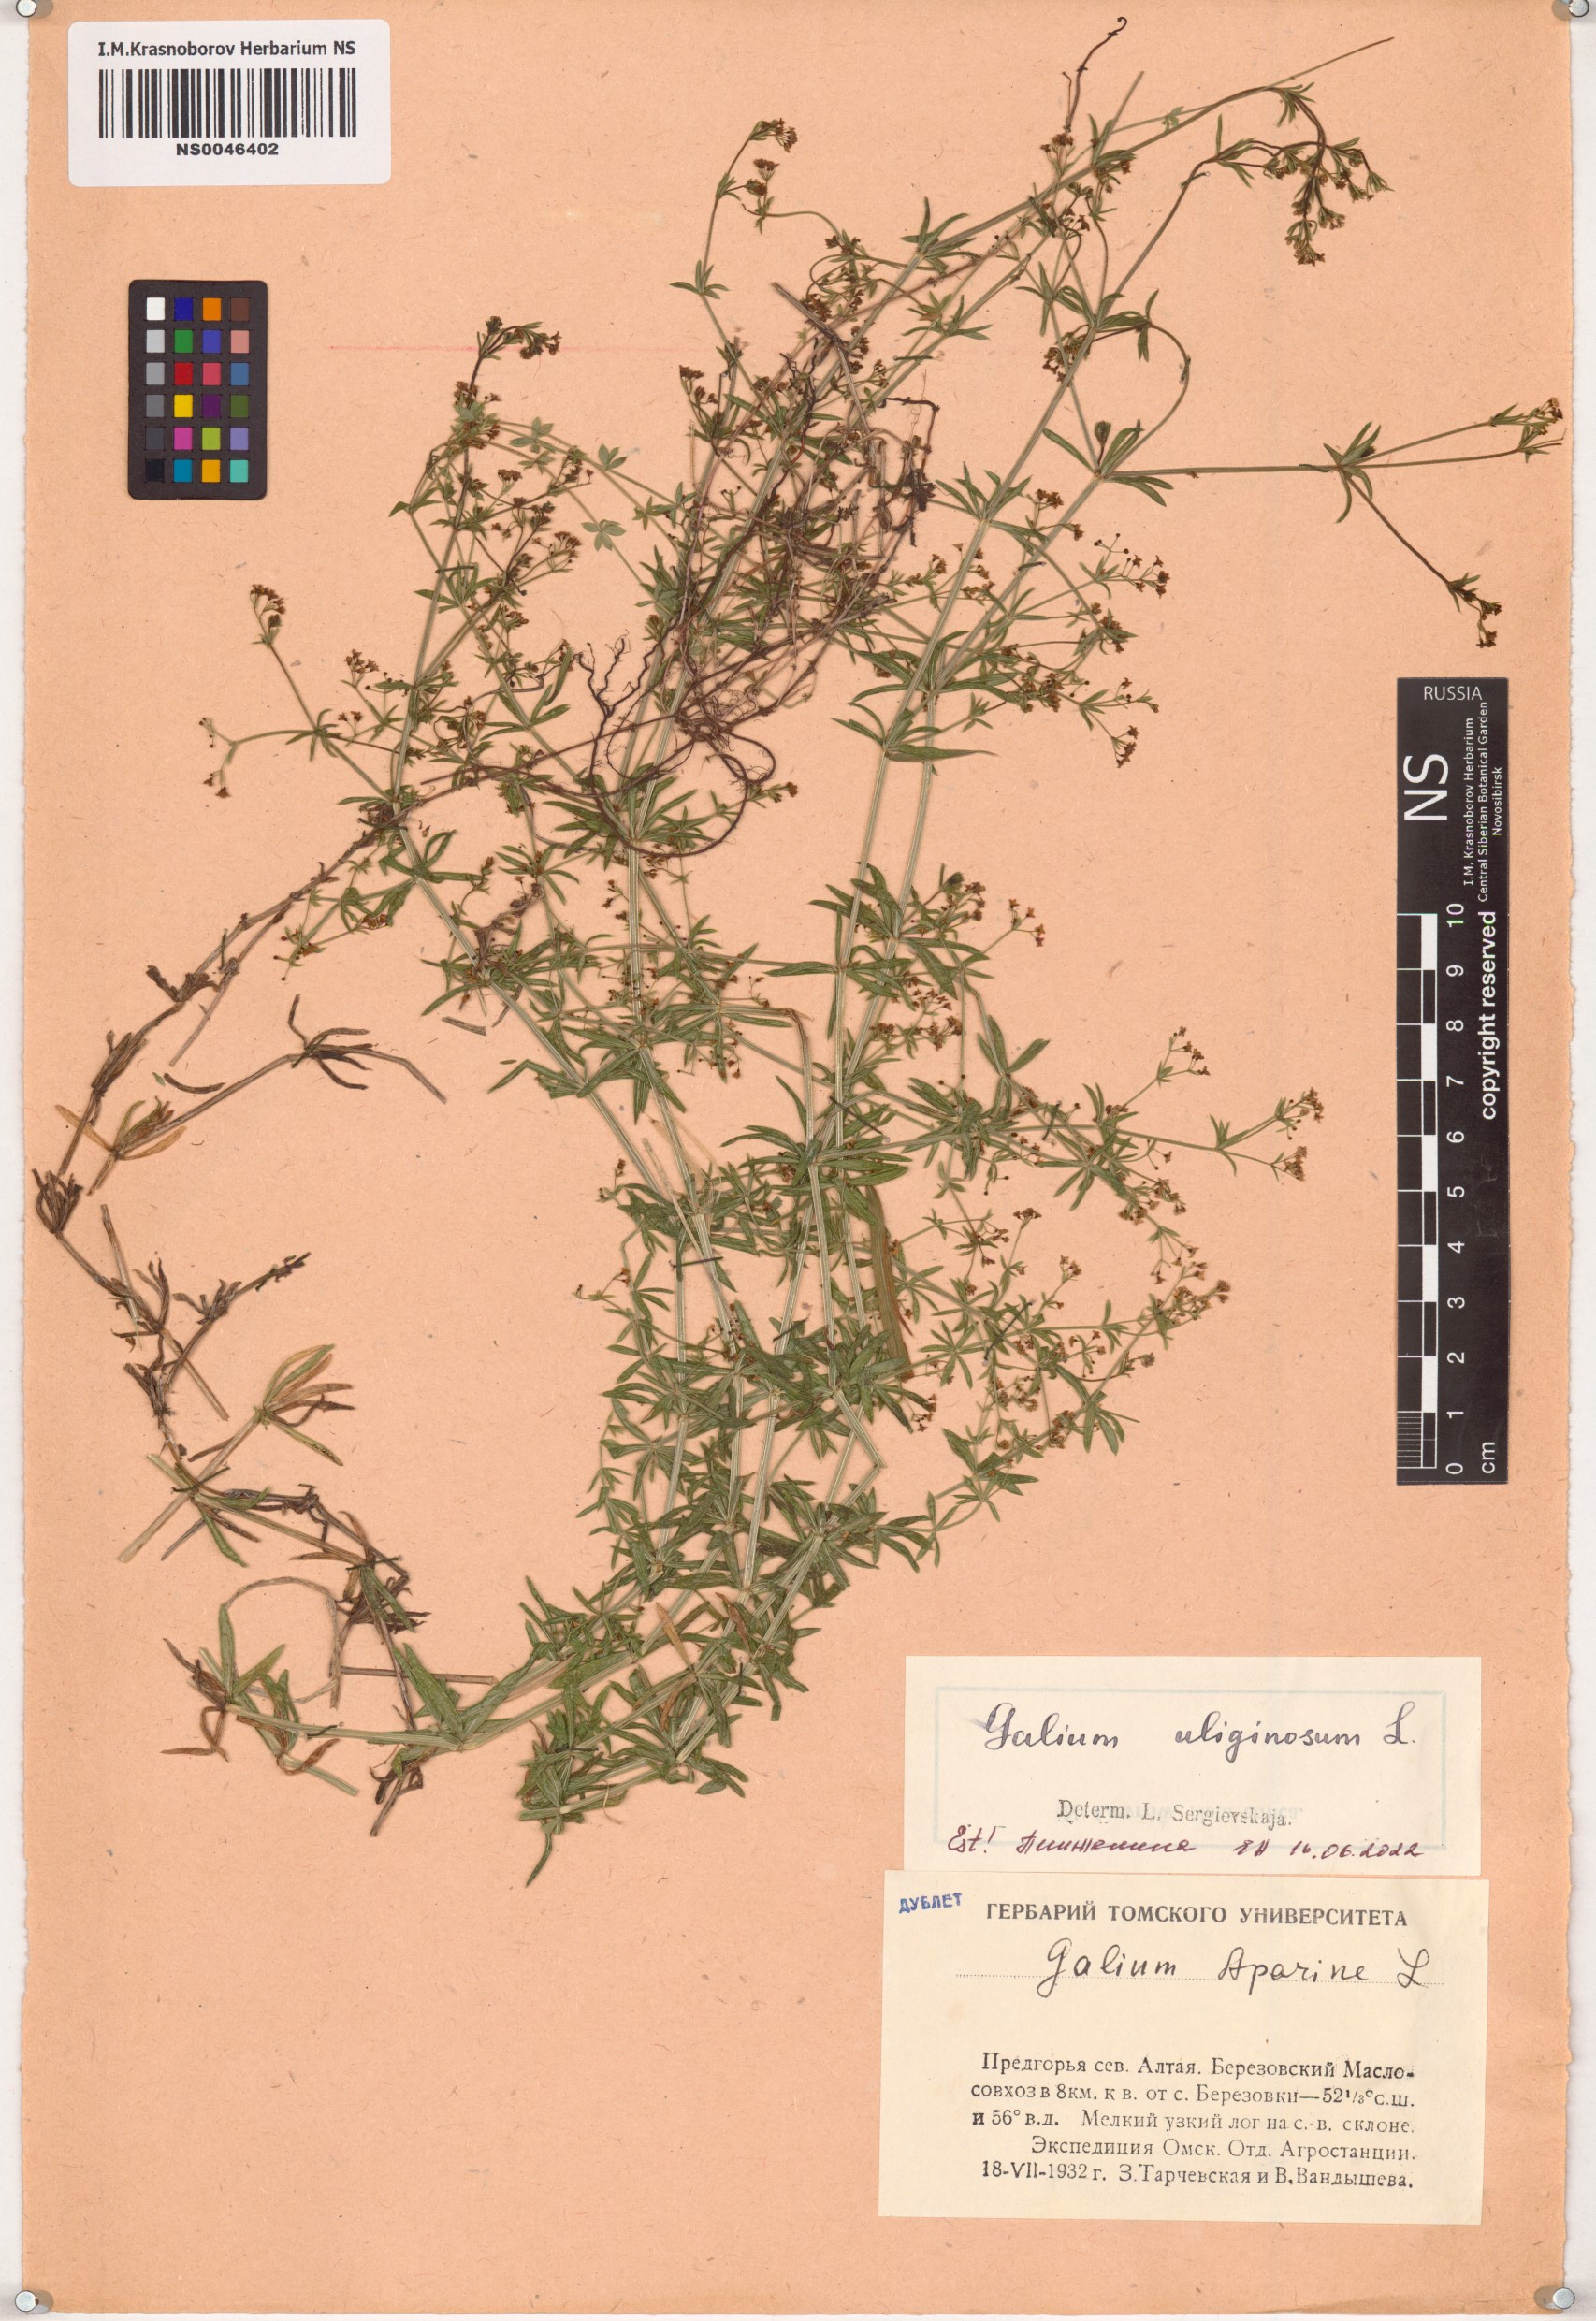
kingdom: Plantae
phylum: Tracheophyta
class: Magnoliopsida
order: Gentianales
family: Rubiaceae
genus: Galium
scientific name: Galium uliginosum
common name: Fen bedstraw
